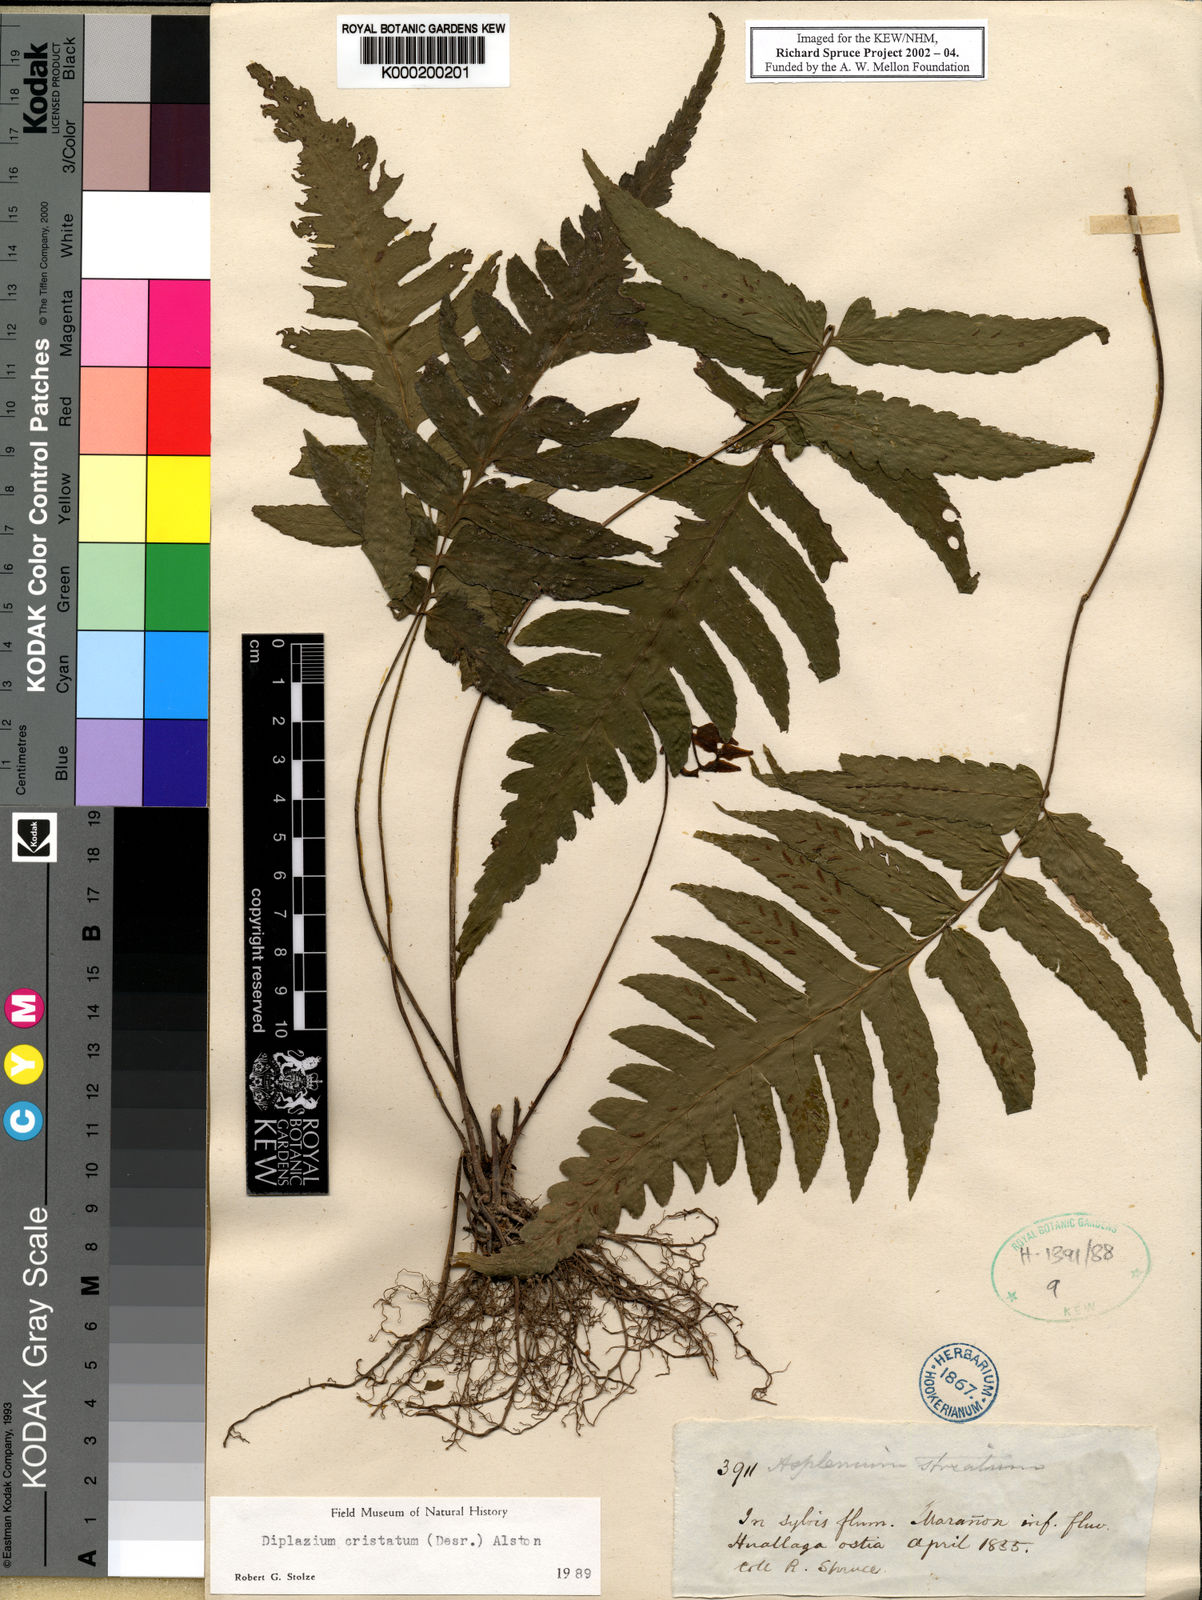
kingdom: Plantae
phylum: Tracheophyta
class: Polypodiopsida
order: Polypodiales
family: Athyriaceae
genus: Diplazium
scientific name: Diplazium
